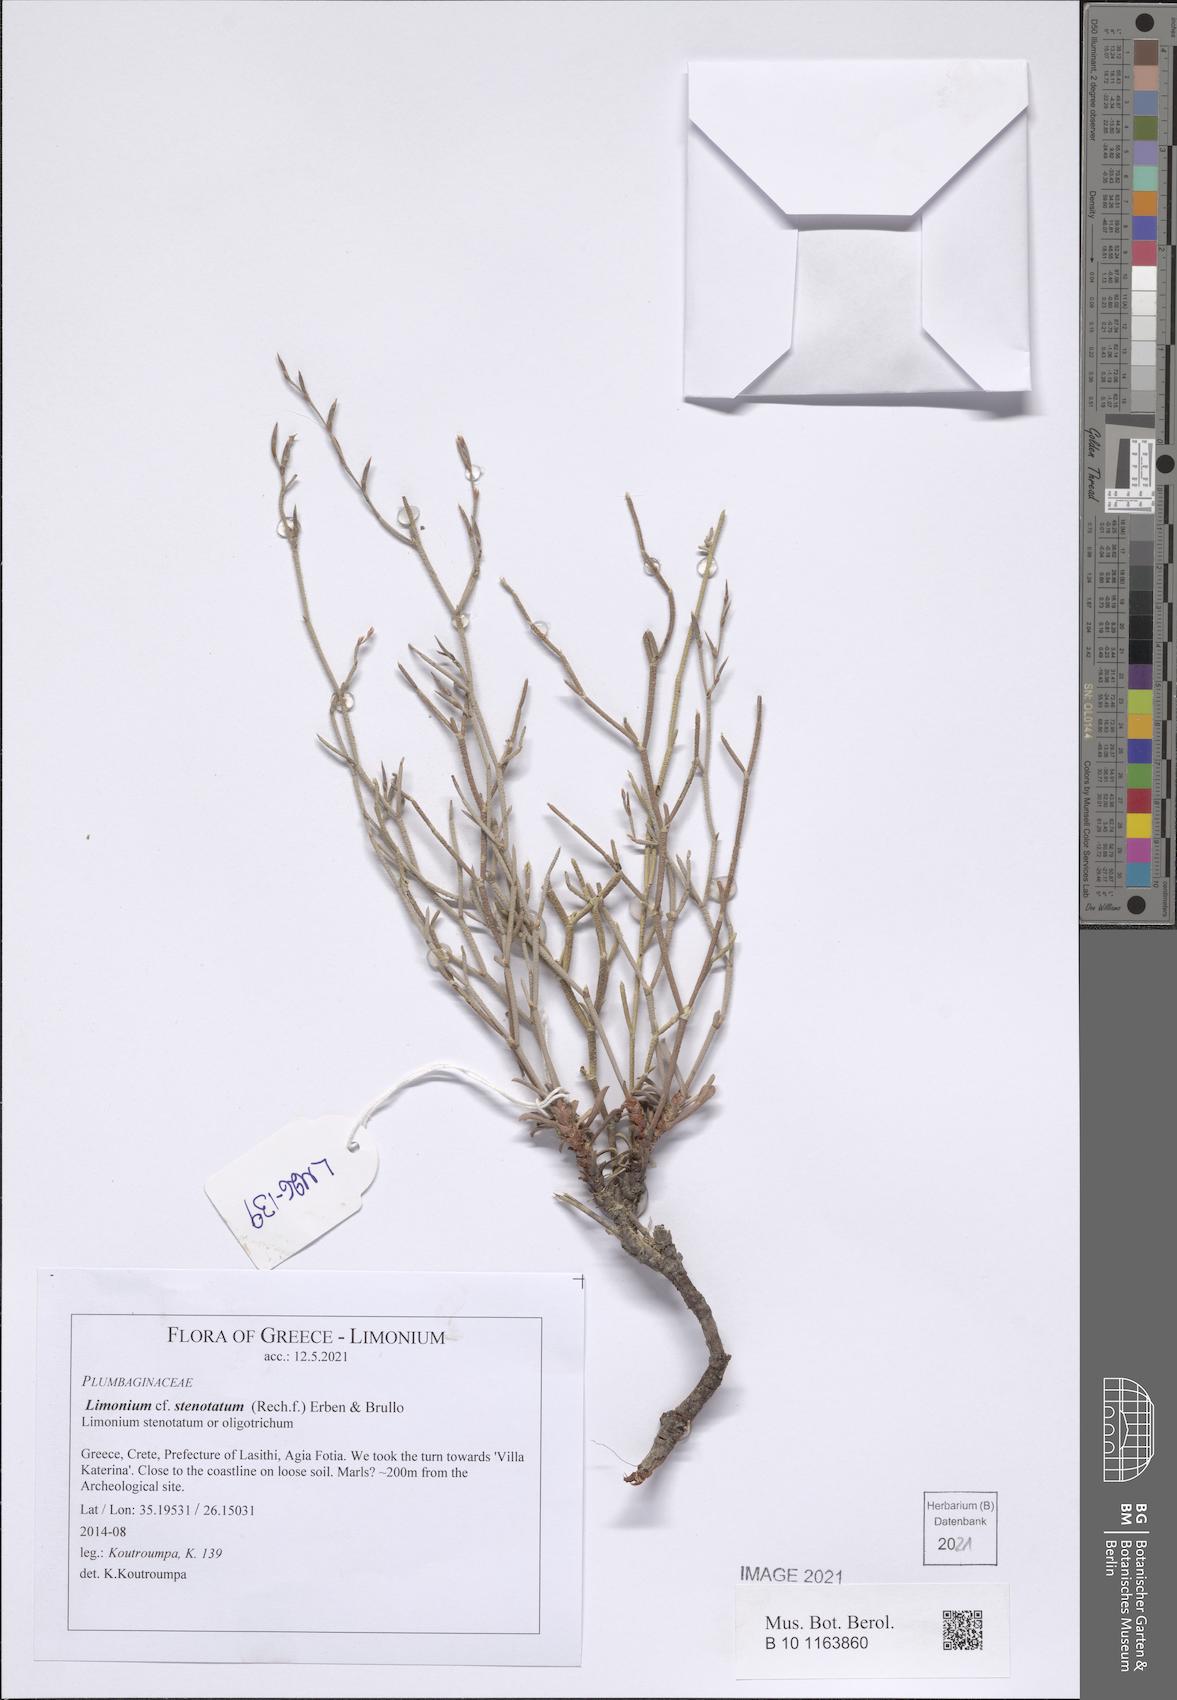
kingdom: Plantae
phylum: Tracheophyta
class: Magnoliopsida
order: Caryophyllales
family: Plumbaginaceae
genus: Limonium
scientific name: Limonium stenotatum
